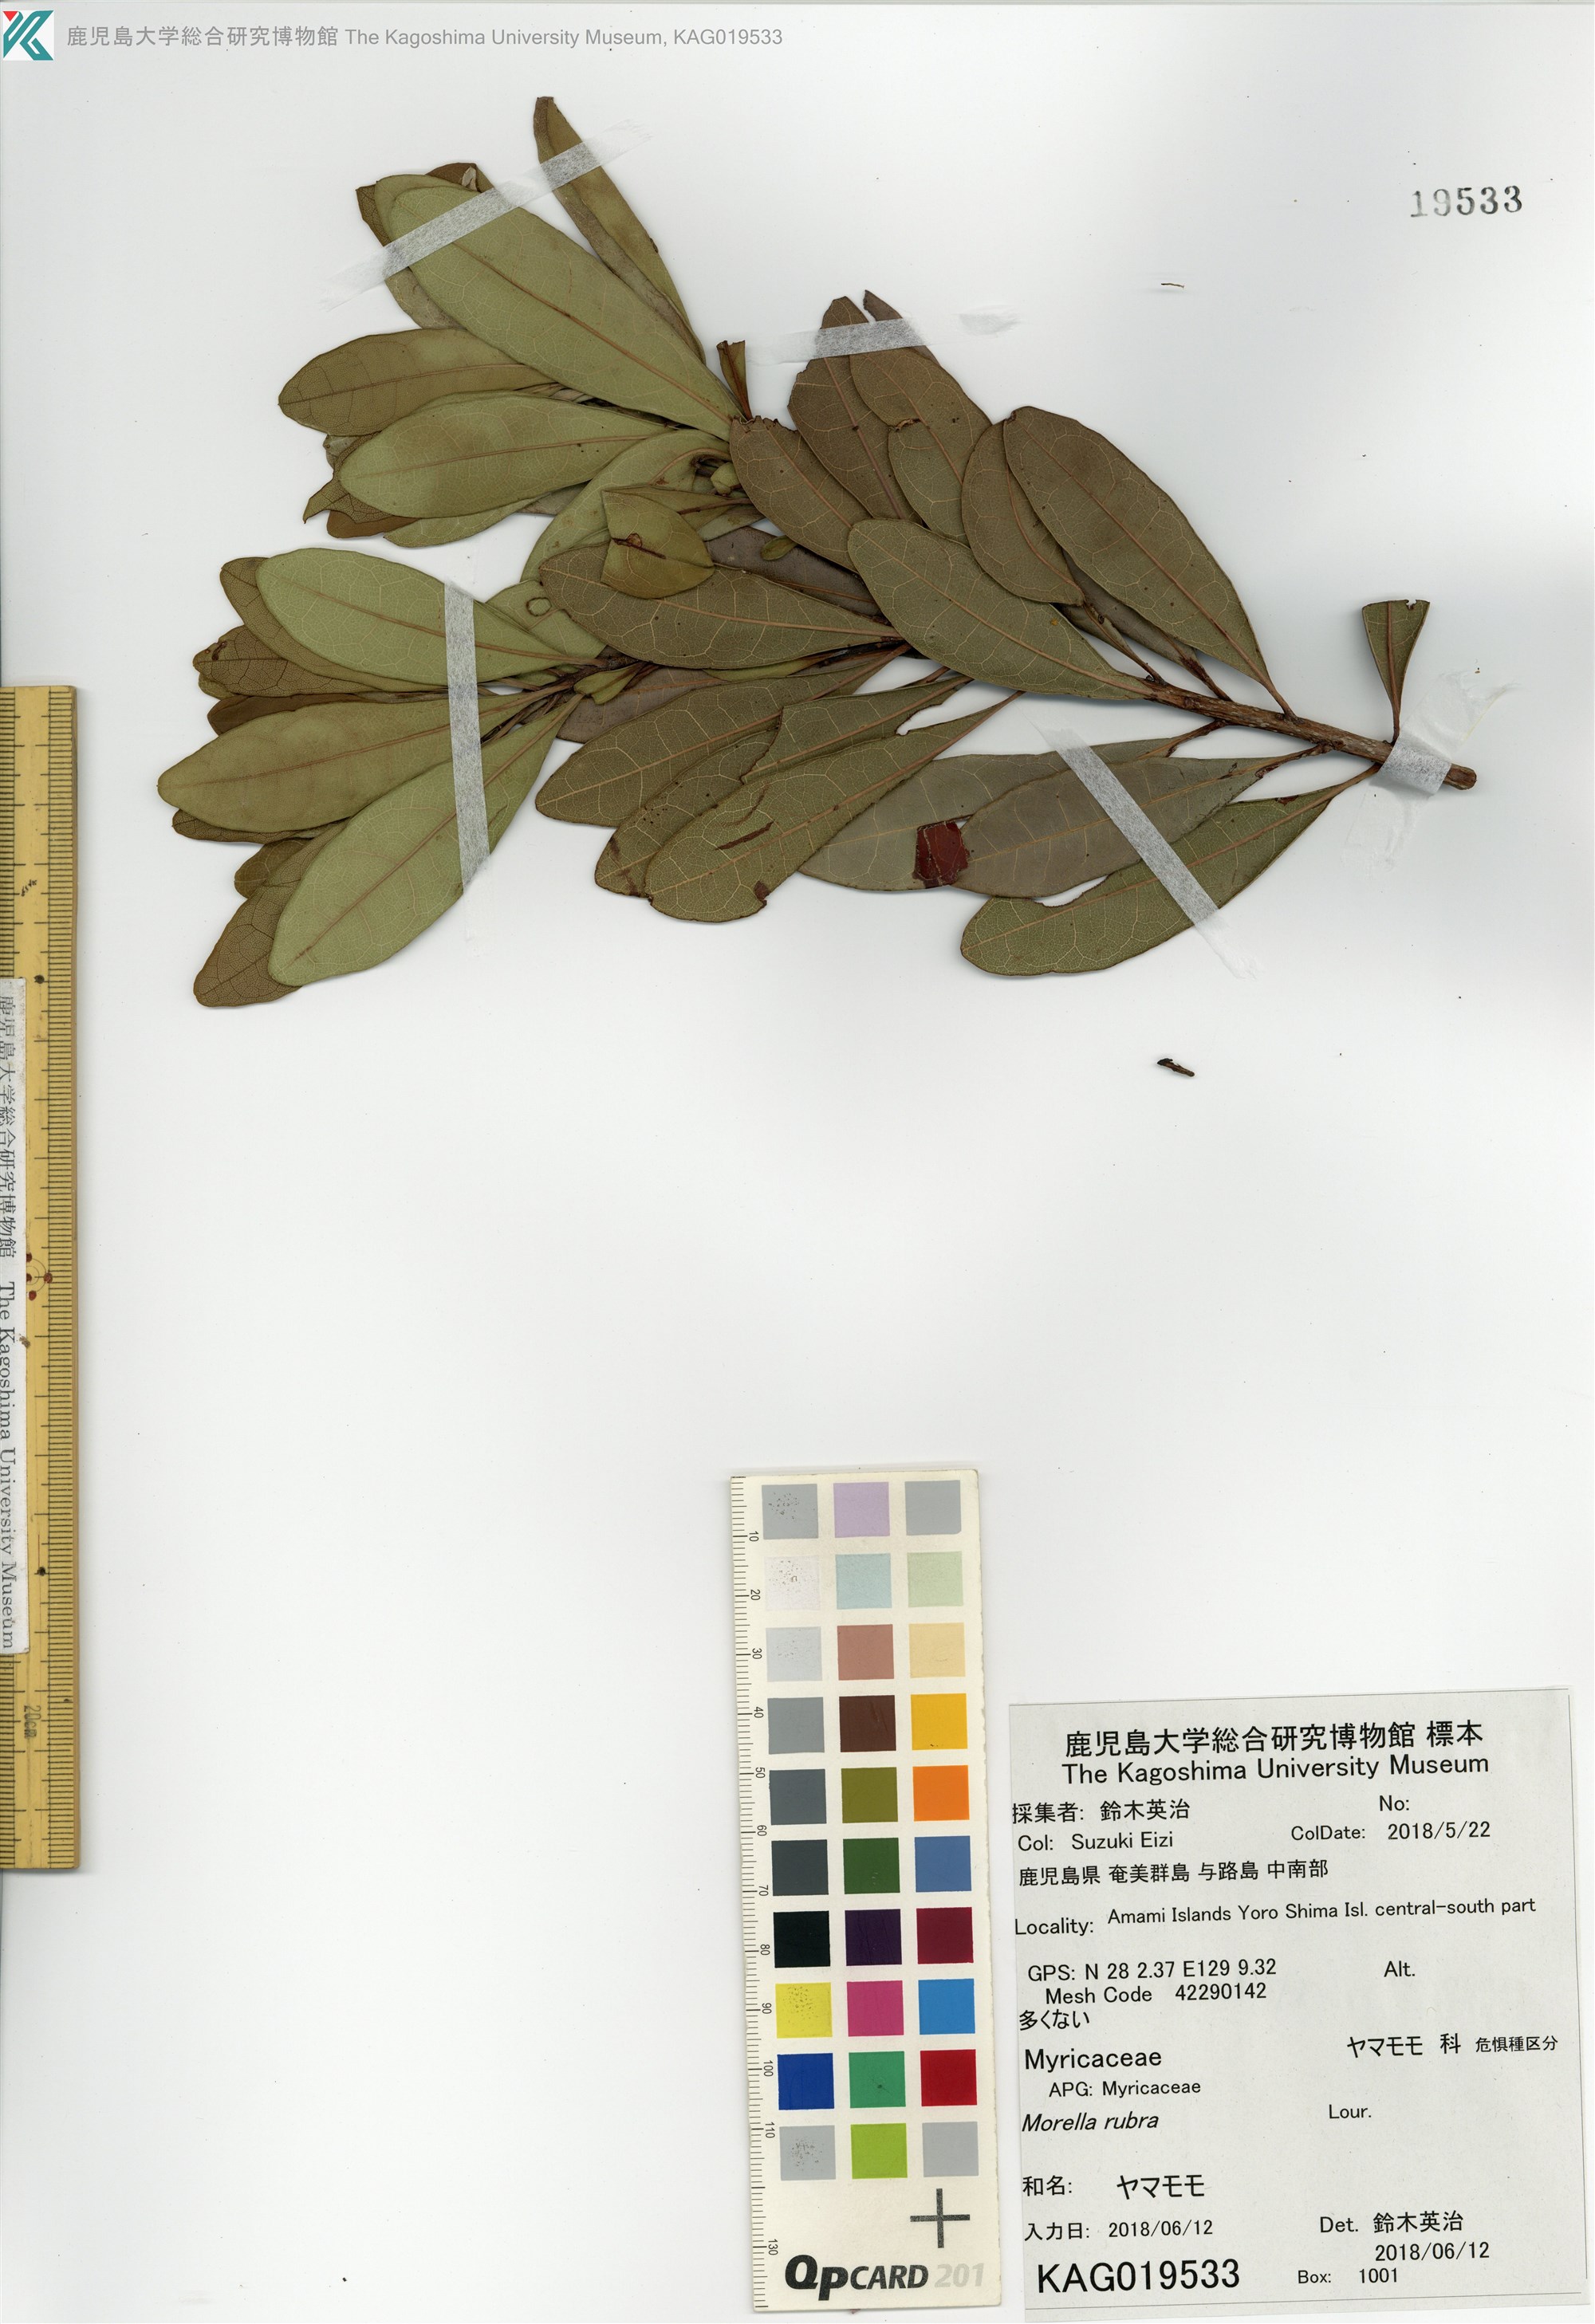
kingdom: Plantae
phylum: Tracheophyta
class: Magnoliopsida
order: Fagales
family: Myricaceae
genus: Morella
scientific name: Morella rubra
